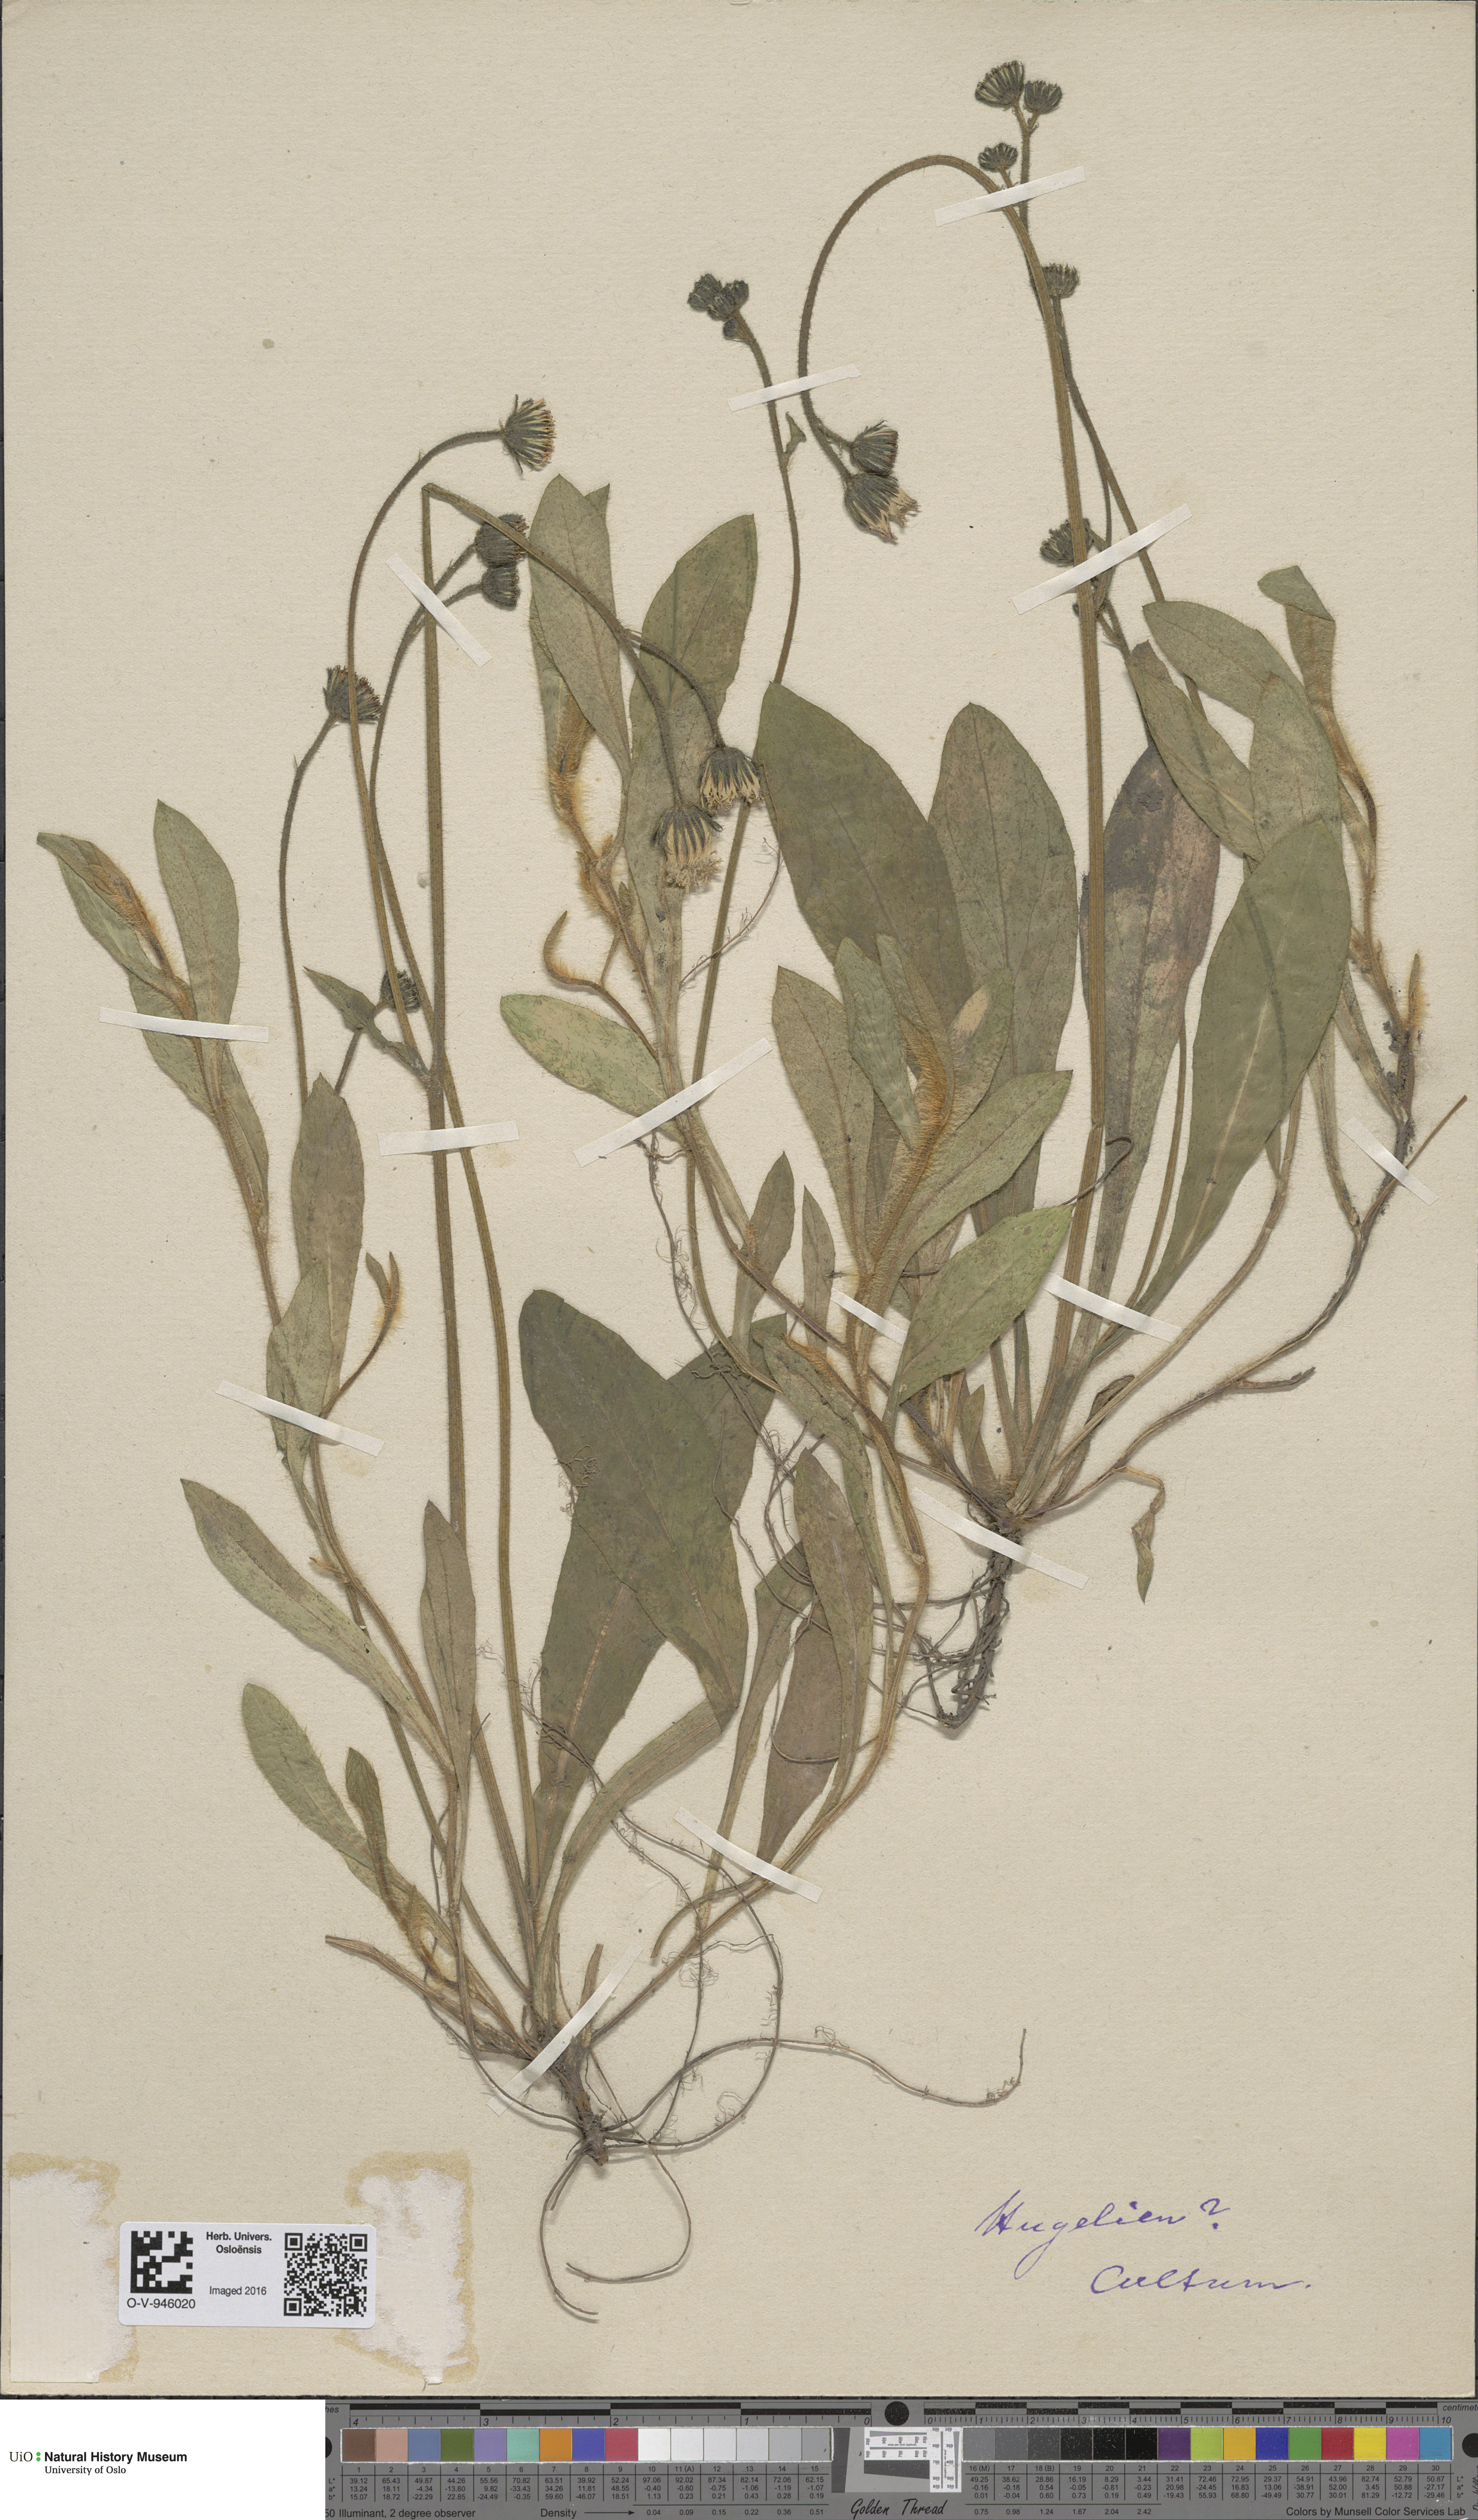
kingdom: Plantae
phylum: Tracheophyta
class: Magnoliopsida
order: Asterales
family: Asteraceae
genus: Hieracium
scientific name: Hieracium
